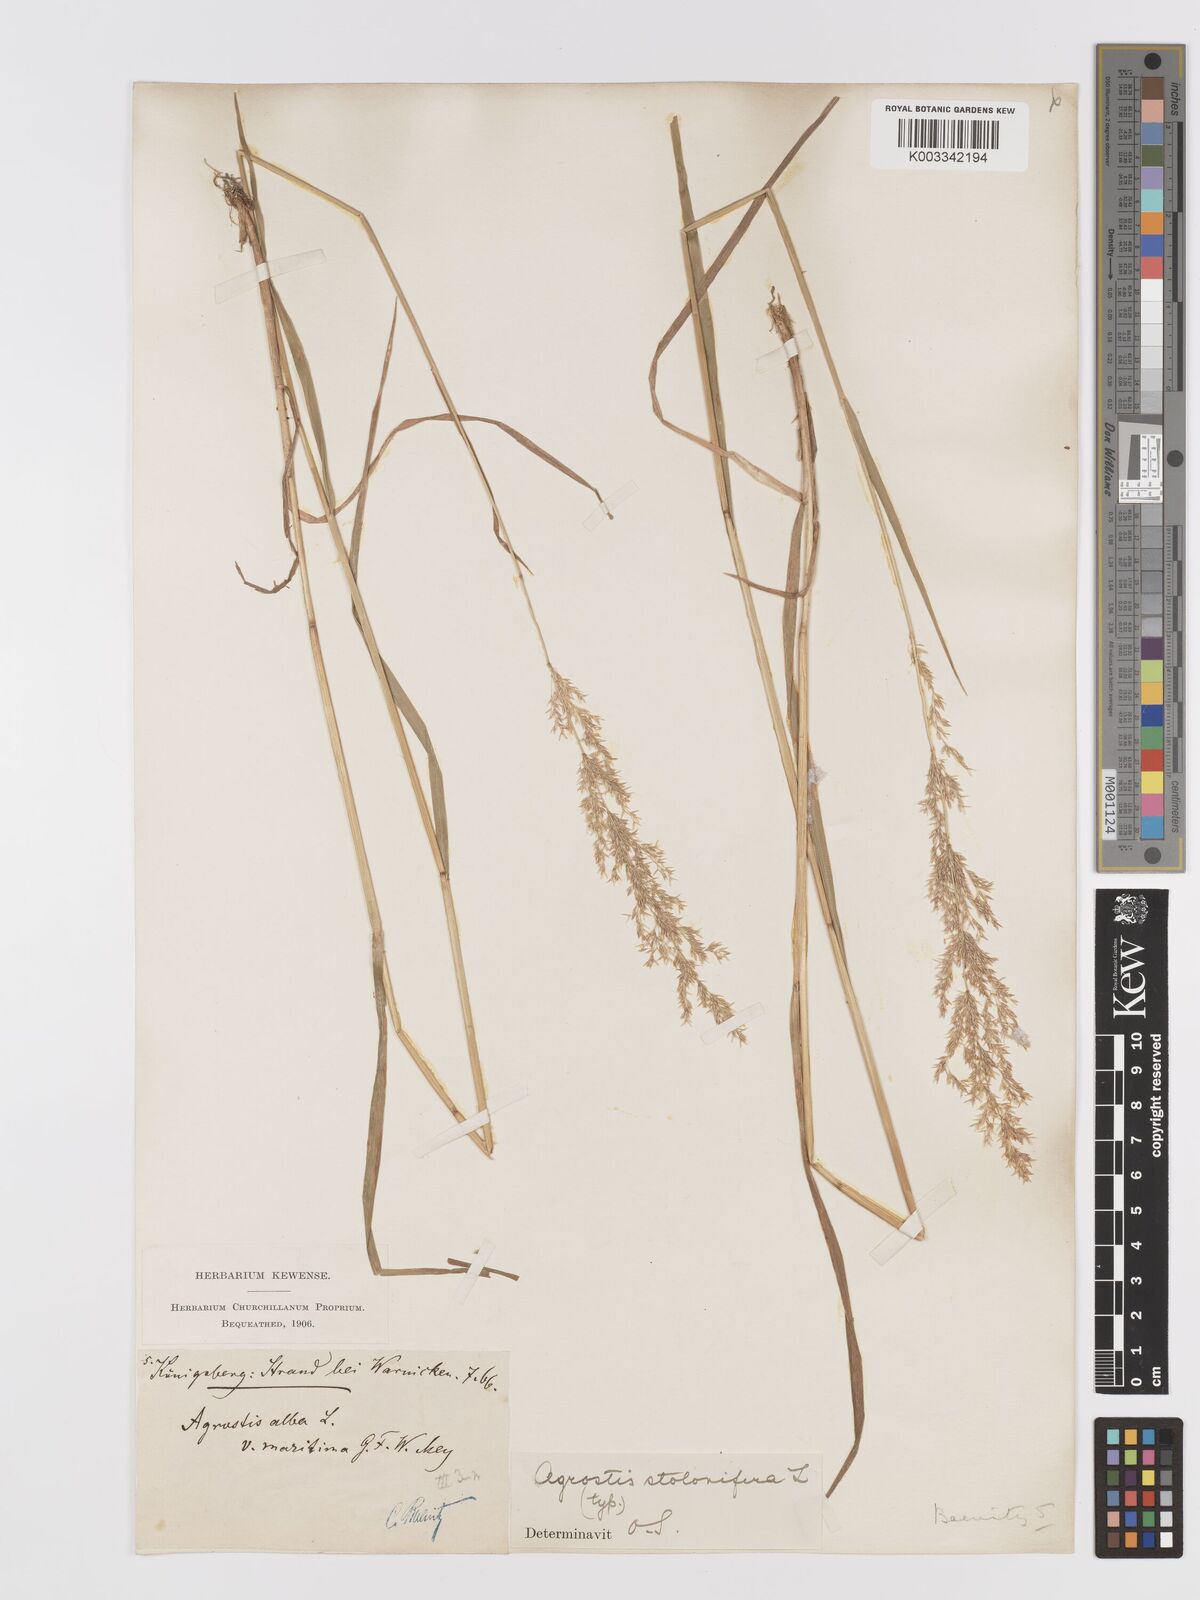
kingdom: Plantae
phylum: Tracheophyta
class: Liliopsida
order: Poales
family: Poaceae
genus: Agrostis
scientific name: Agrostis stolonifera
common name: Creeping bentgrass
